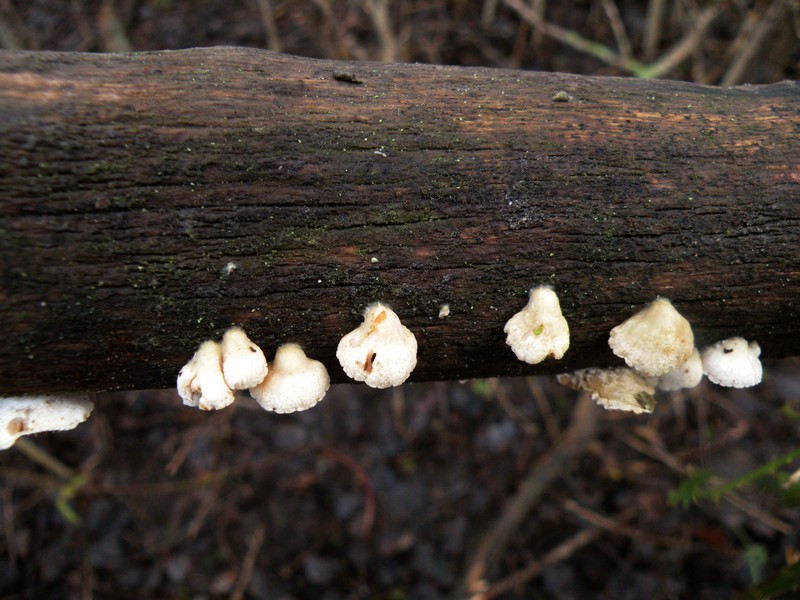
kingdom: Fungi
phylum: Basidiomycota
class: Agaricomycetes
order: Agaricales
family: Crepidotaceae
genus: Crepidotus
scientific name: Crepidotus cesatii
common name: almindelig muslingesvamp
